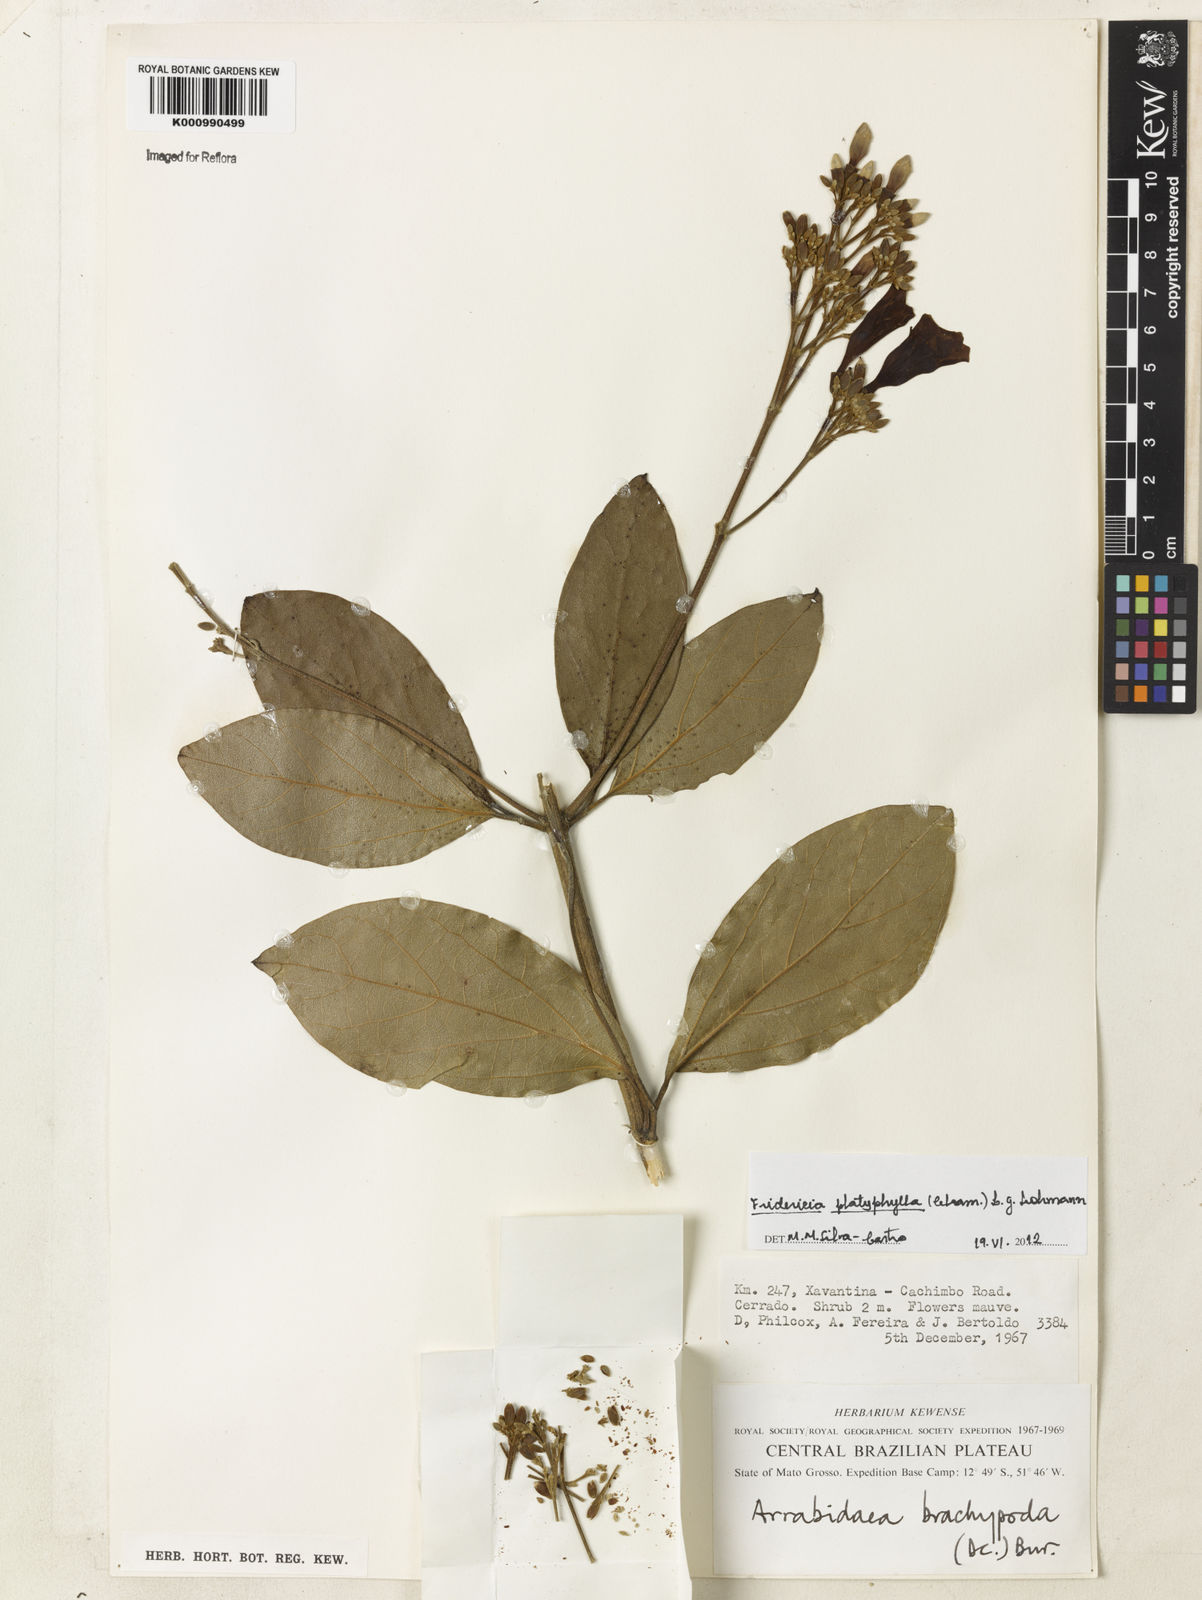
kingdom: Plantae
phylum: Tracheophyta
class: Magnoliopsida
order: Lamiales
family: Bignoniaceae
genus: Fridericia
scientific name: Fridericia platyphylla
